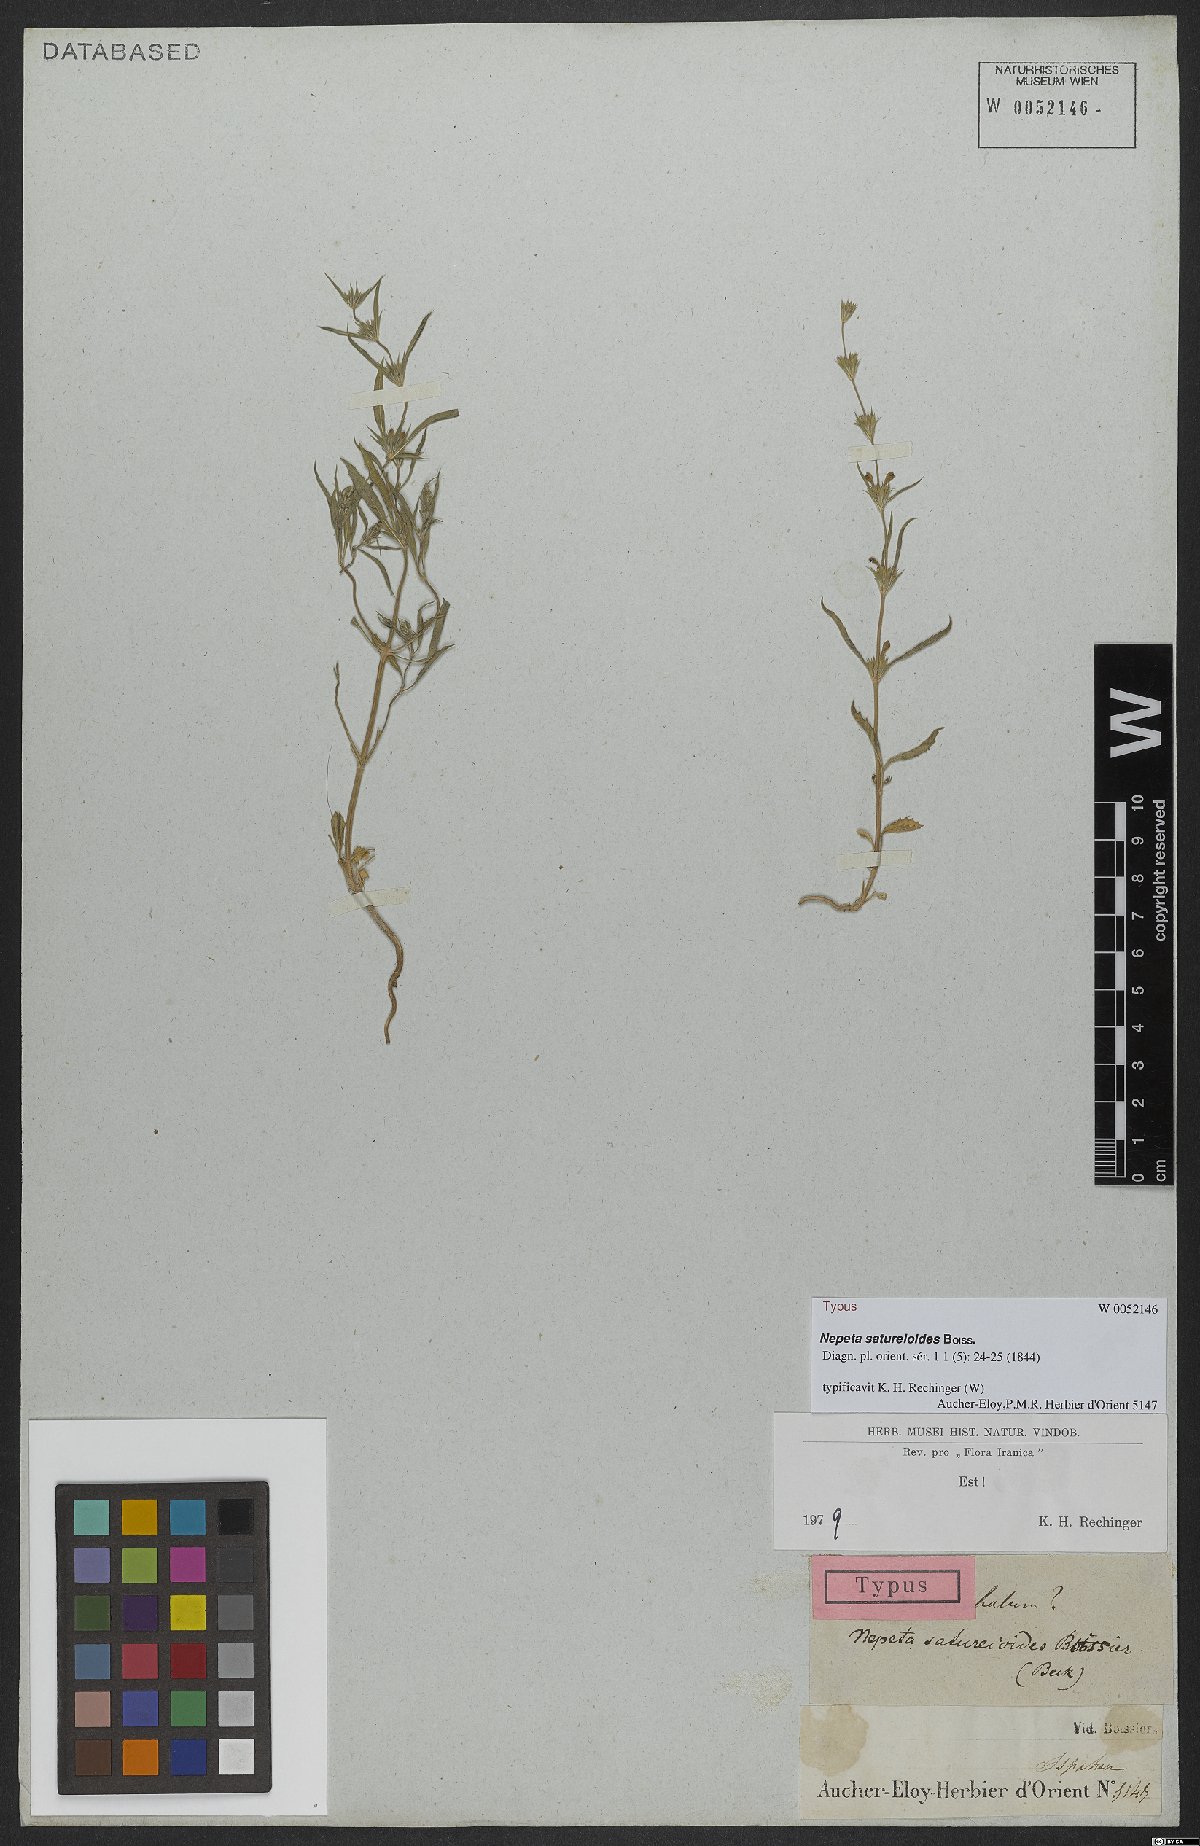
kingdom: Plantae
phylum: Tracheophyta
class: Magnoliopsida
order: Lamiales
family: Lamiaceae
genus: Nepeta
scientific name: Nepeta saturejoides
